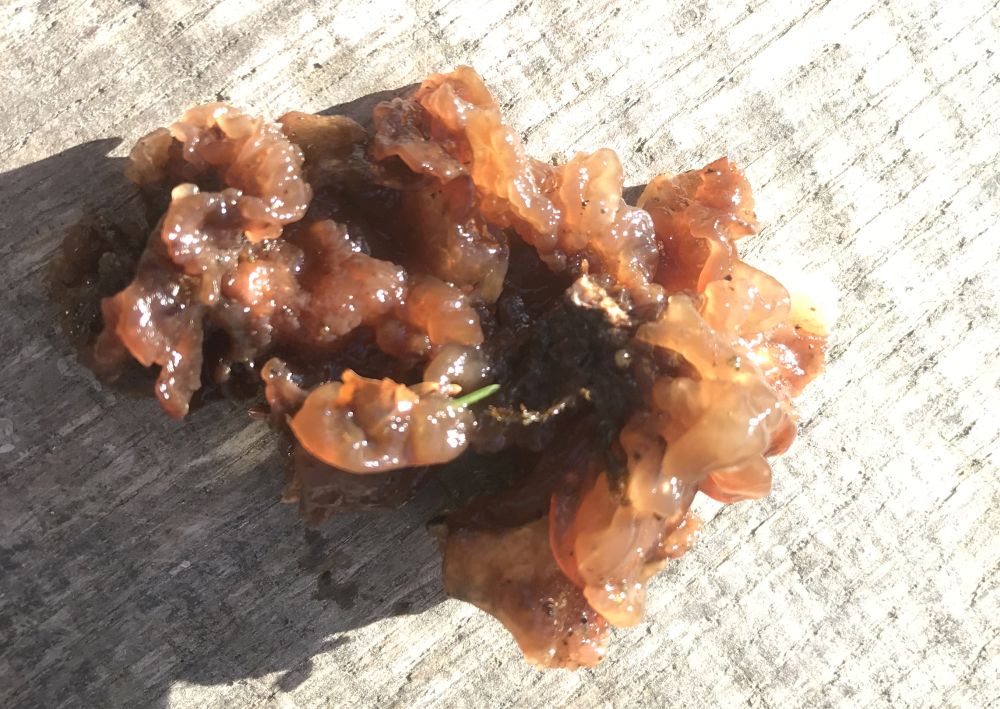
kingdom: Fungi
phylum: Basidiomycota
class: Tremellomycetes
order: Tremellales
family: Tremellaceae
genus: Phaeotremella
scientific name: Phaeotremella frondosa
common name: kæmpe-bævresvamp
